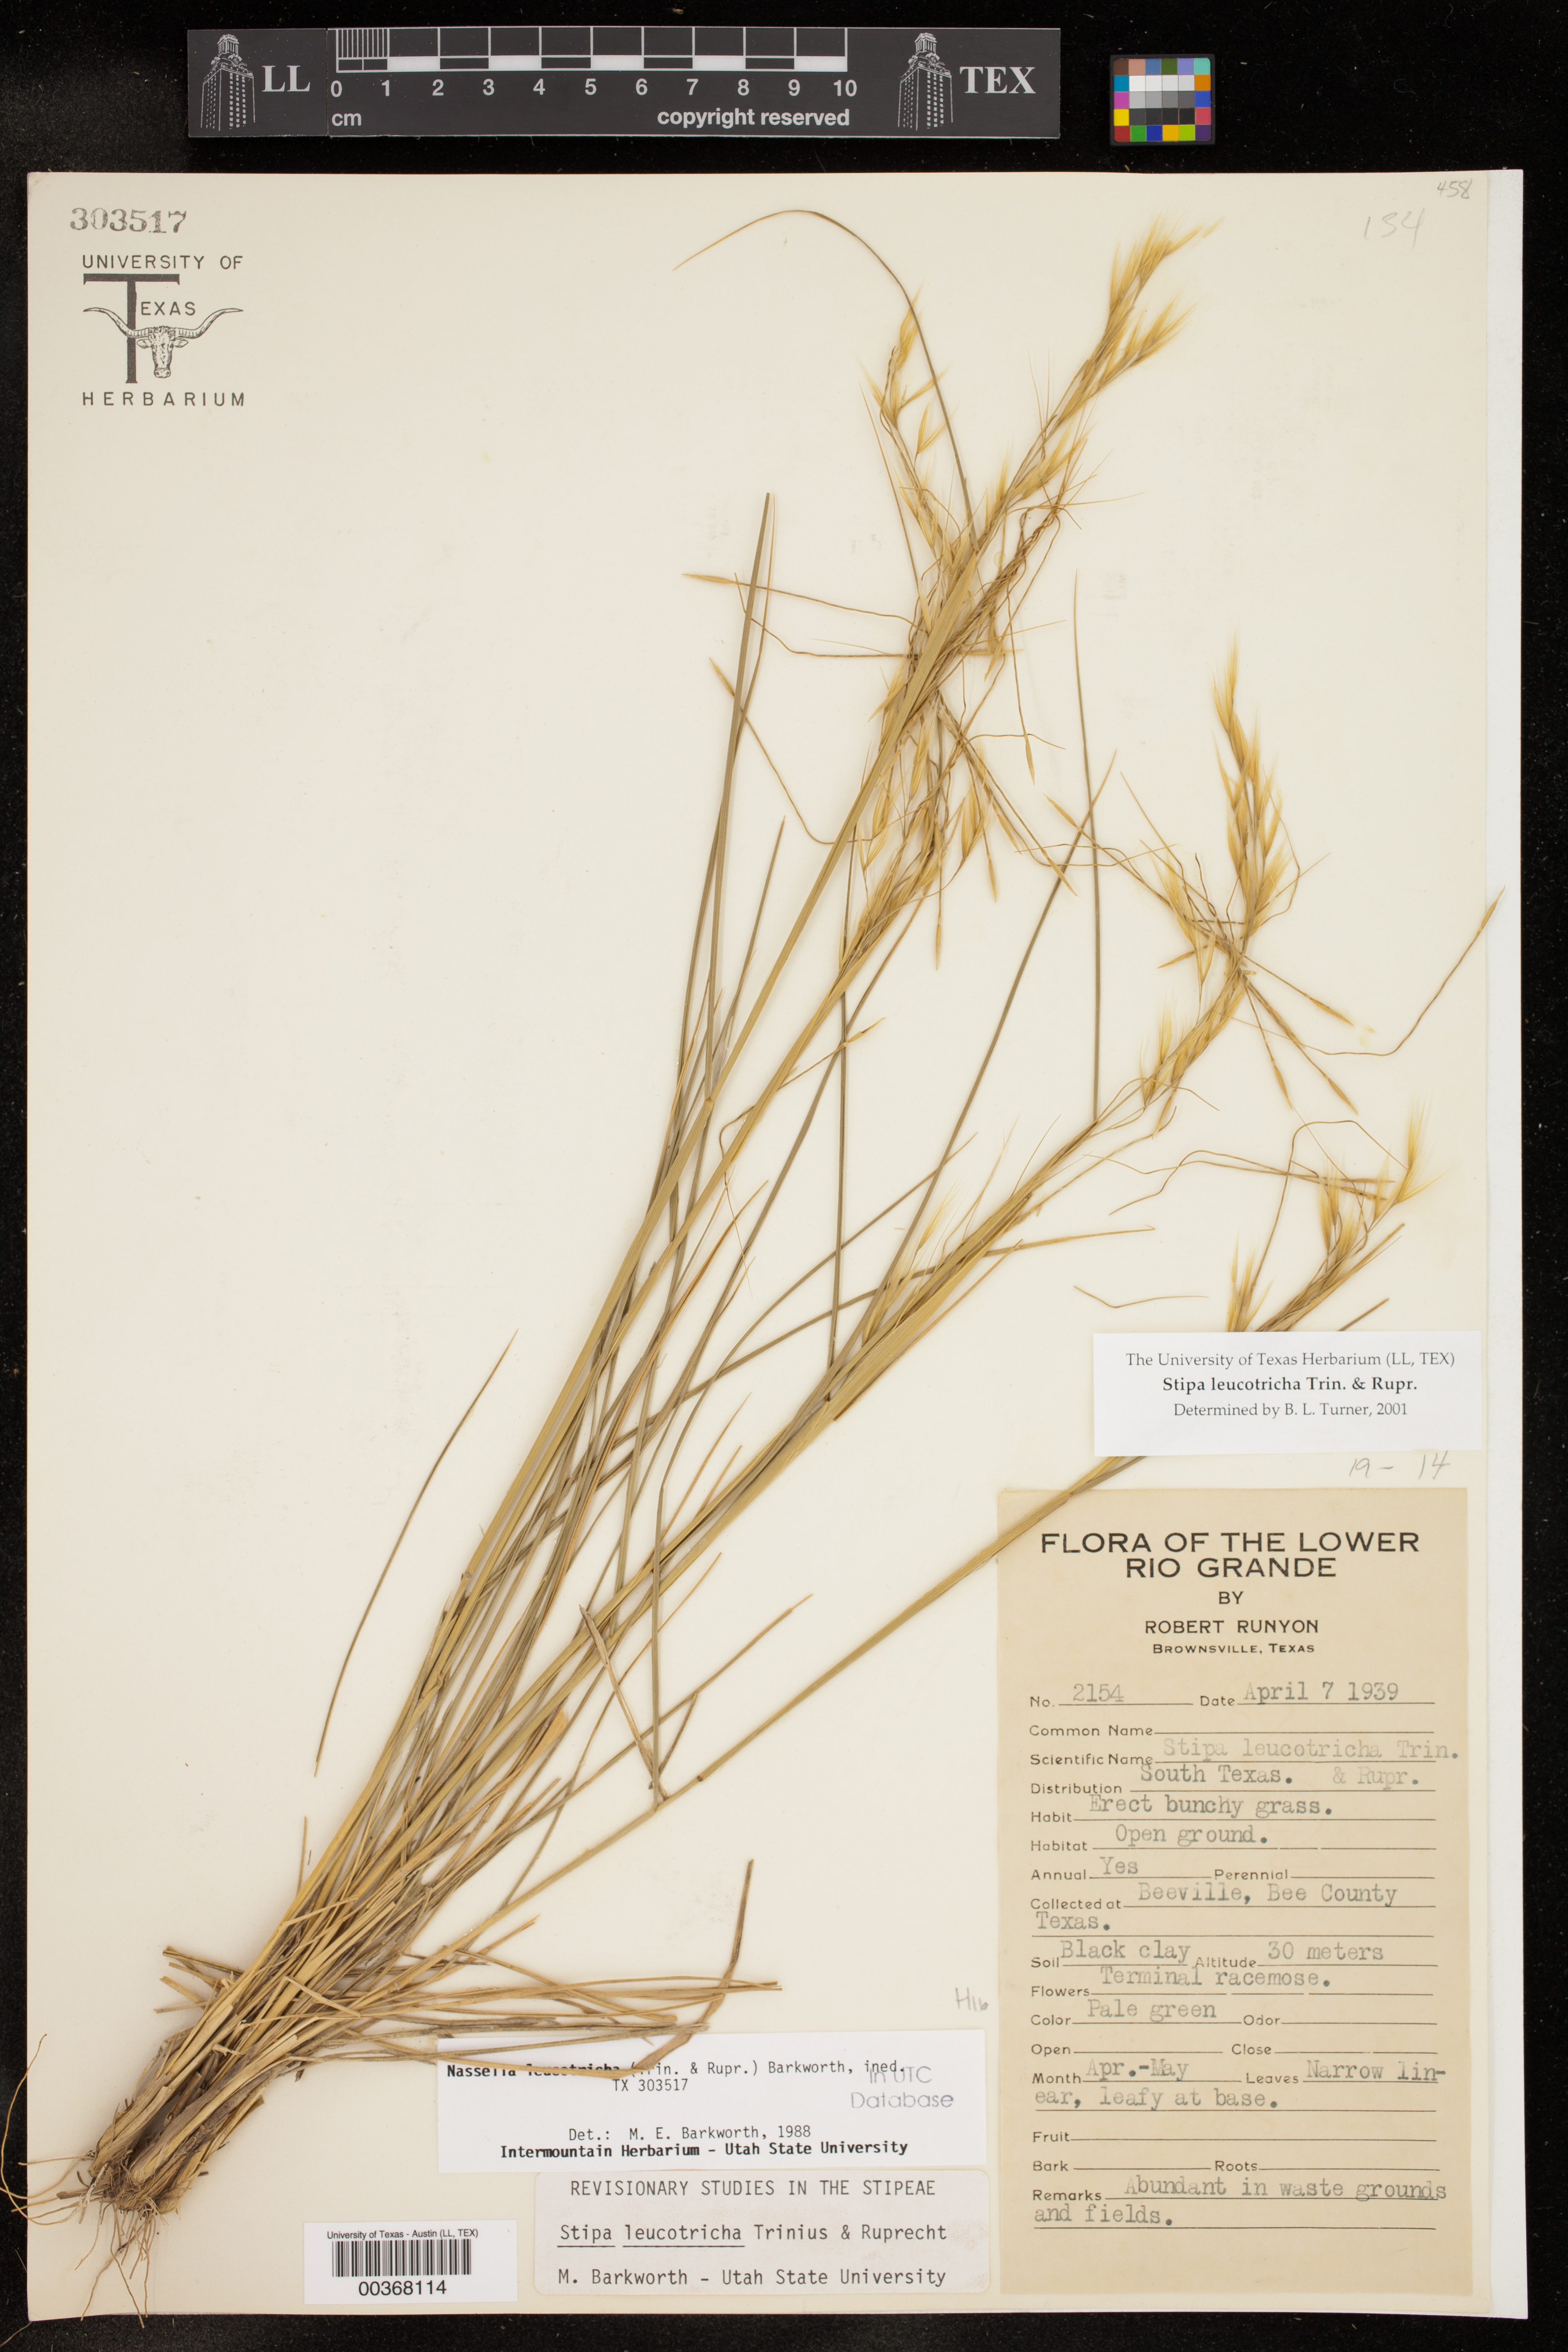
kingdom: Plantae
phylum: Tracheophyta
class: Liliopsida
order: Poales
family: Poaceae
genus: Nassella
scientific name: Nassella leucotricha
